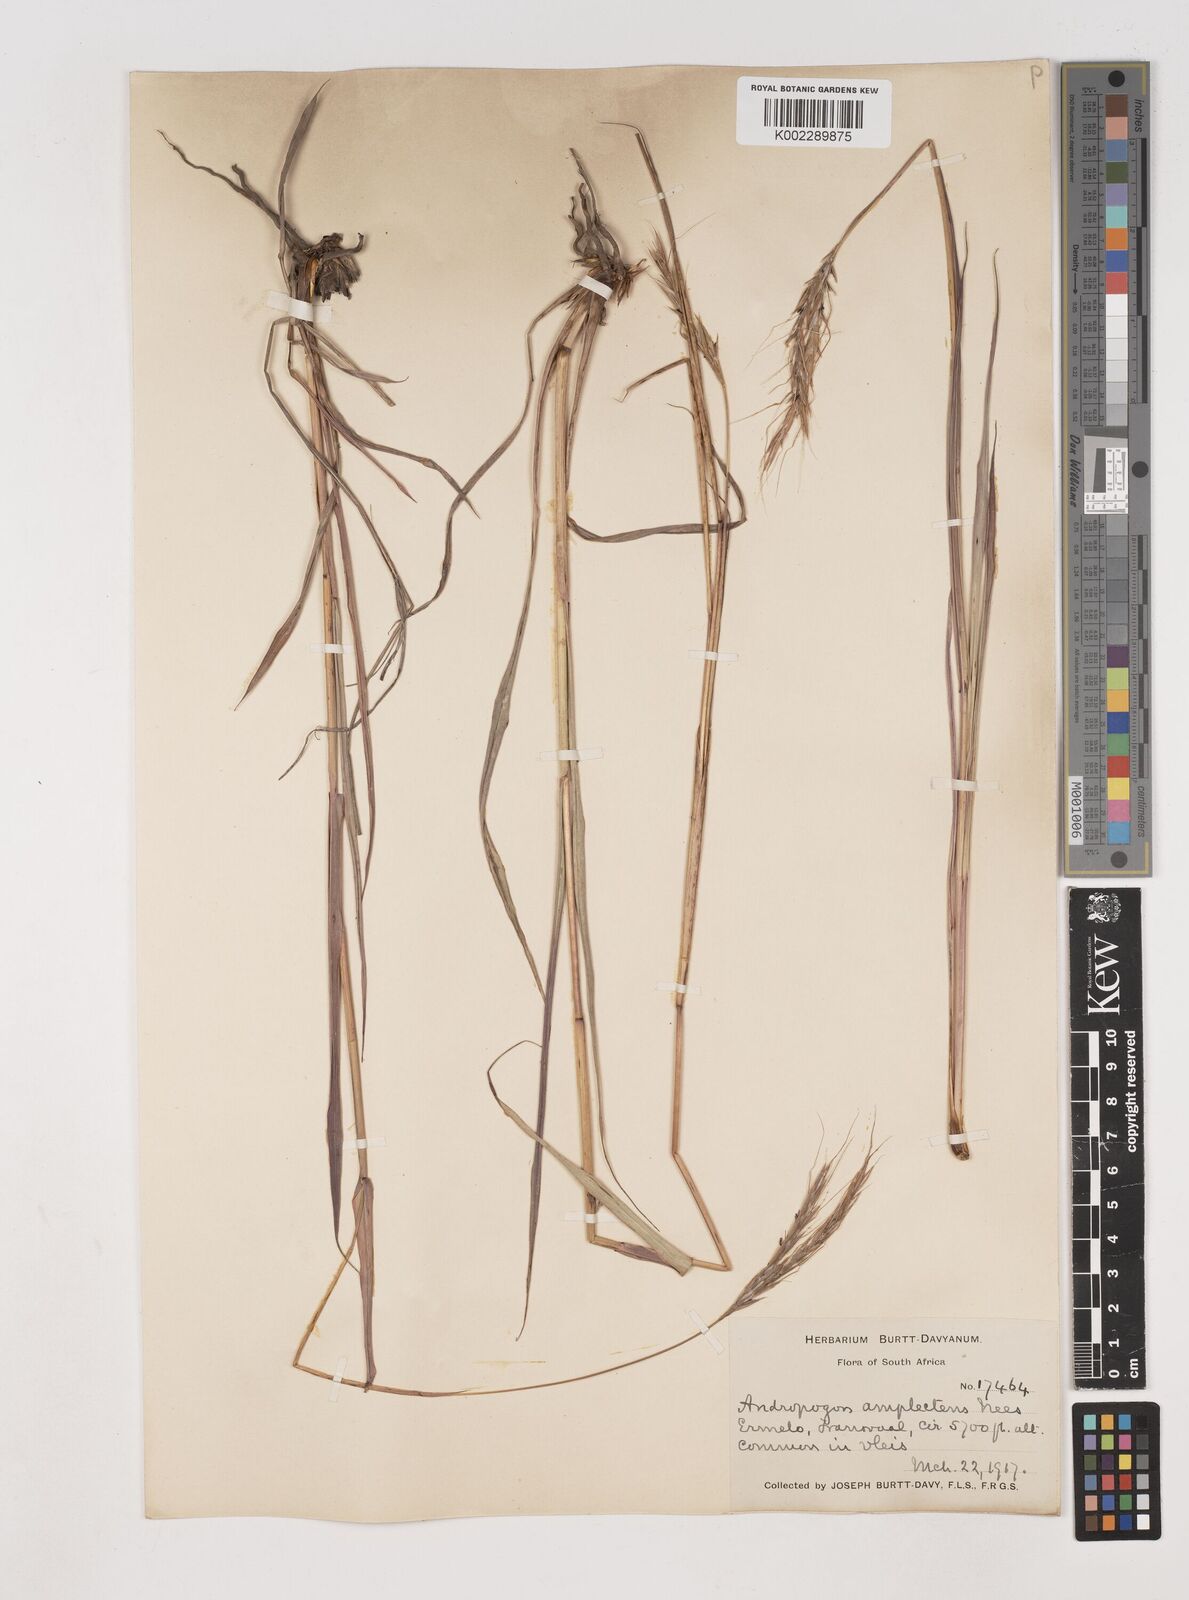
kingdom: Plantae
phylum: Tracheophyta
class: Liliopsida
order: Poales
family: Poaceae
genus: Diheteropogon
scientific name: Diheteropogon amplectens
